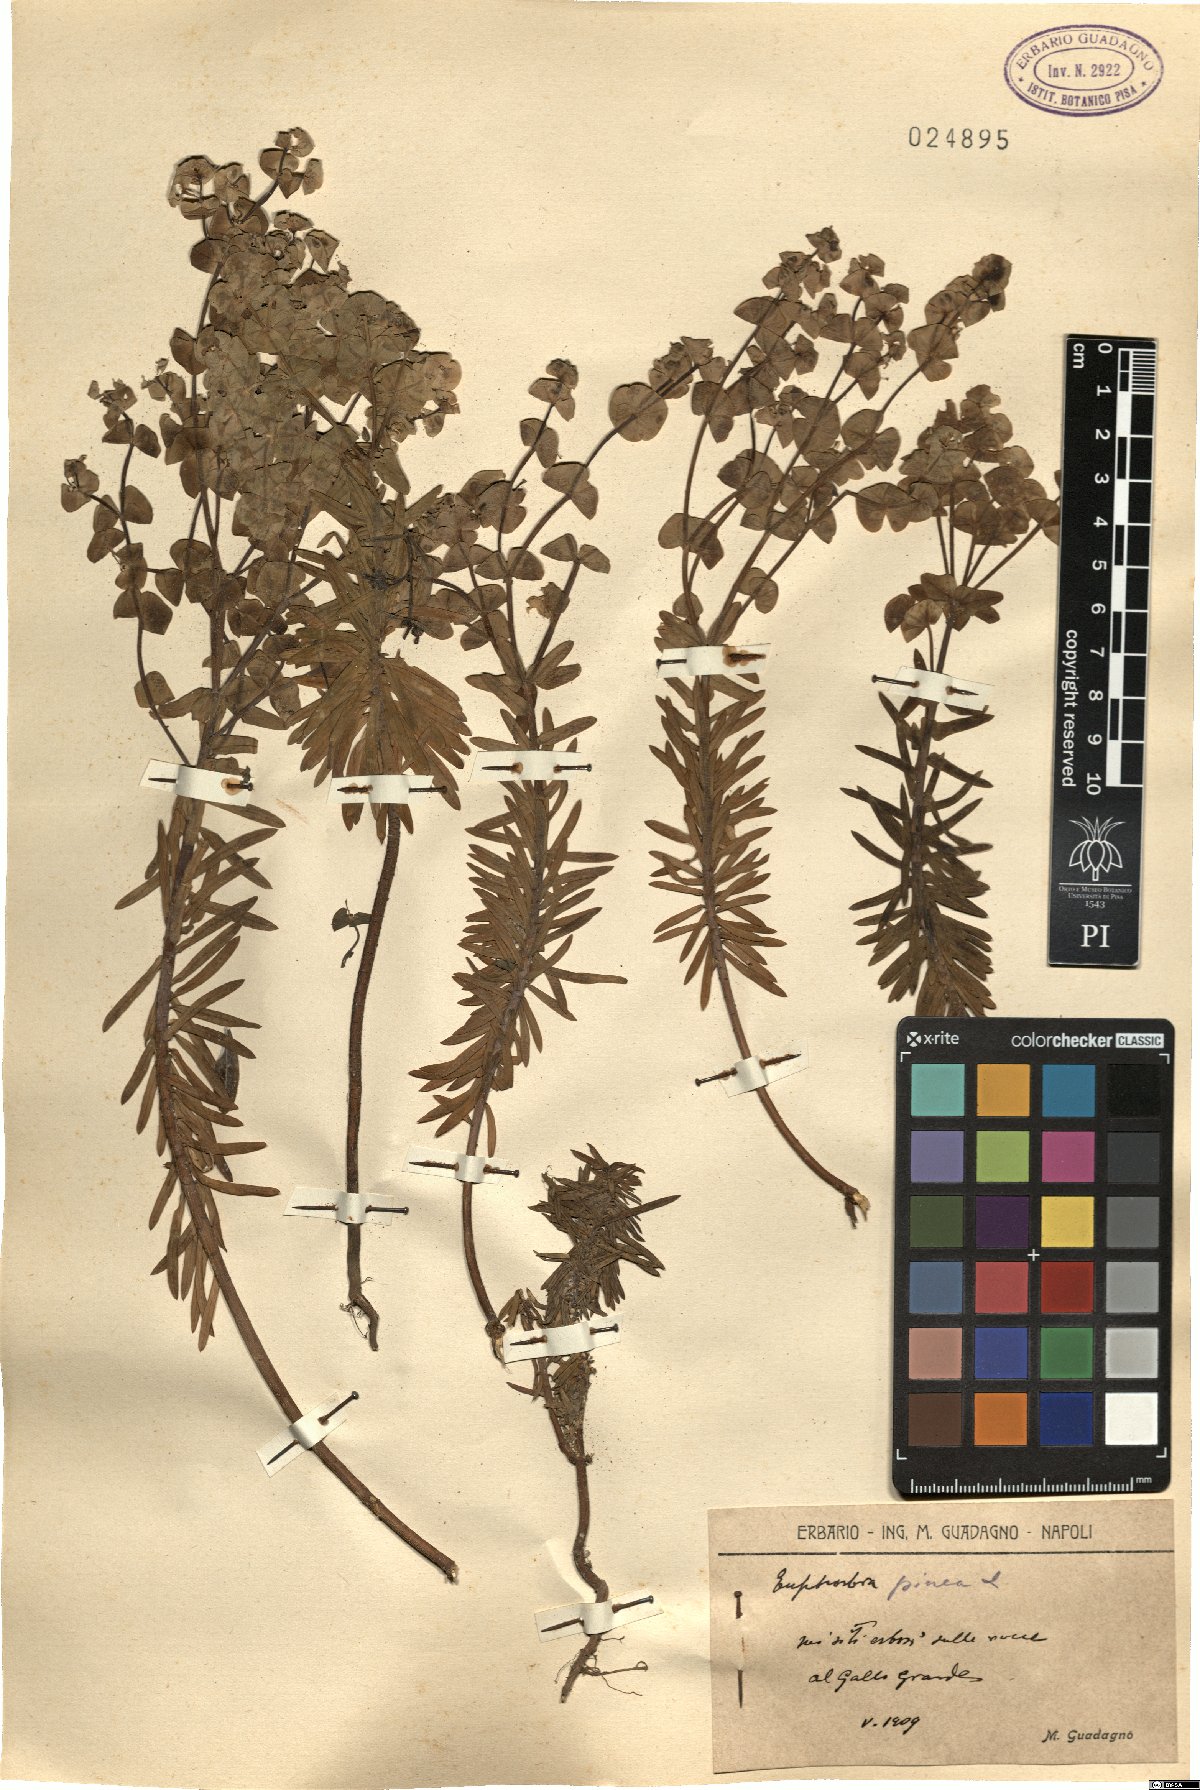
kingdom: Plantae
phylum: Tracheophyta
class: Magnoliopsida
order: Malpighiales
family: Euphorbiaceae
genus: Euphorbia
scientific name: Euphorbia segetalis
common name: Corn spurge
